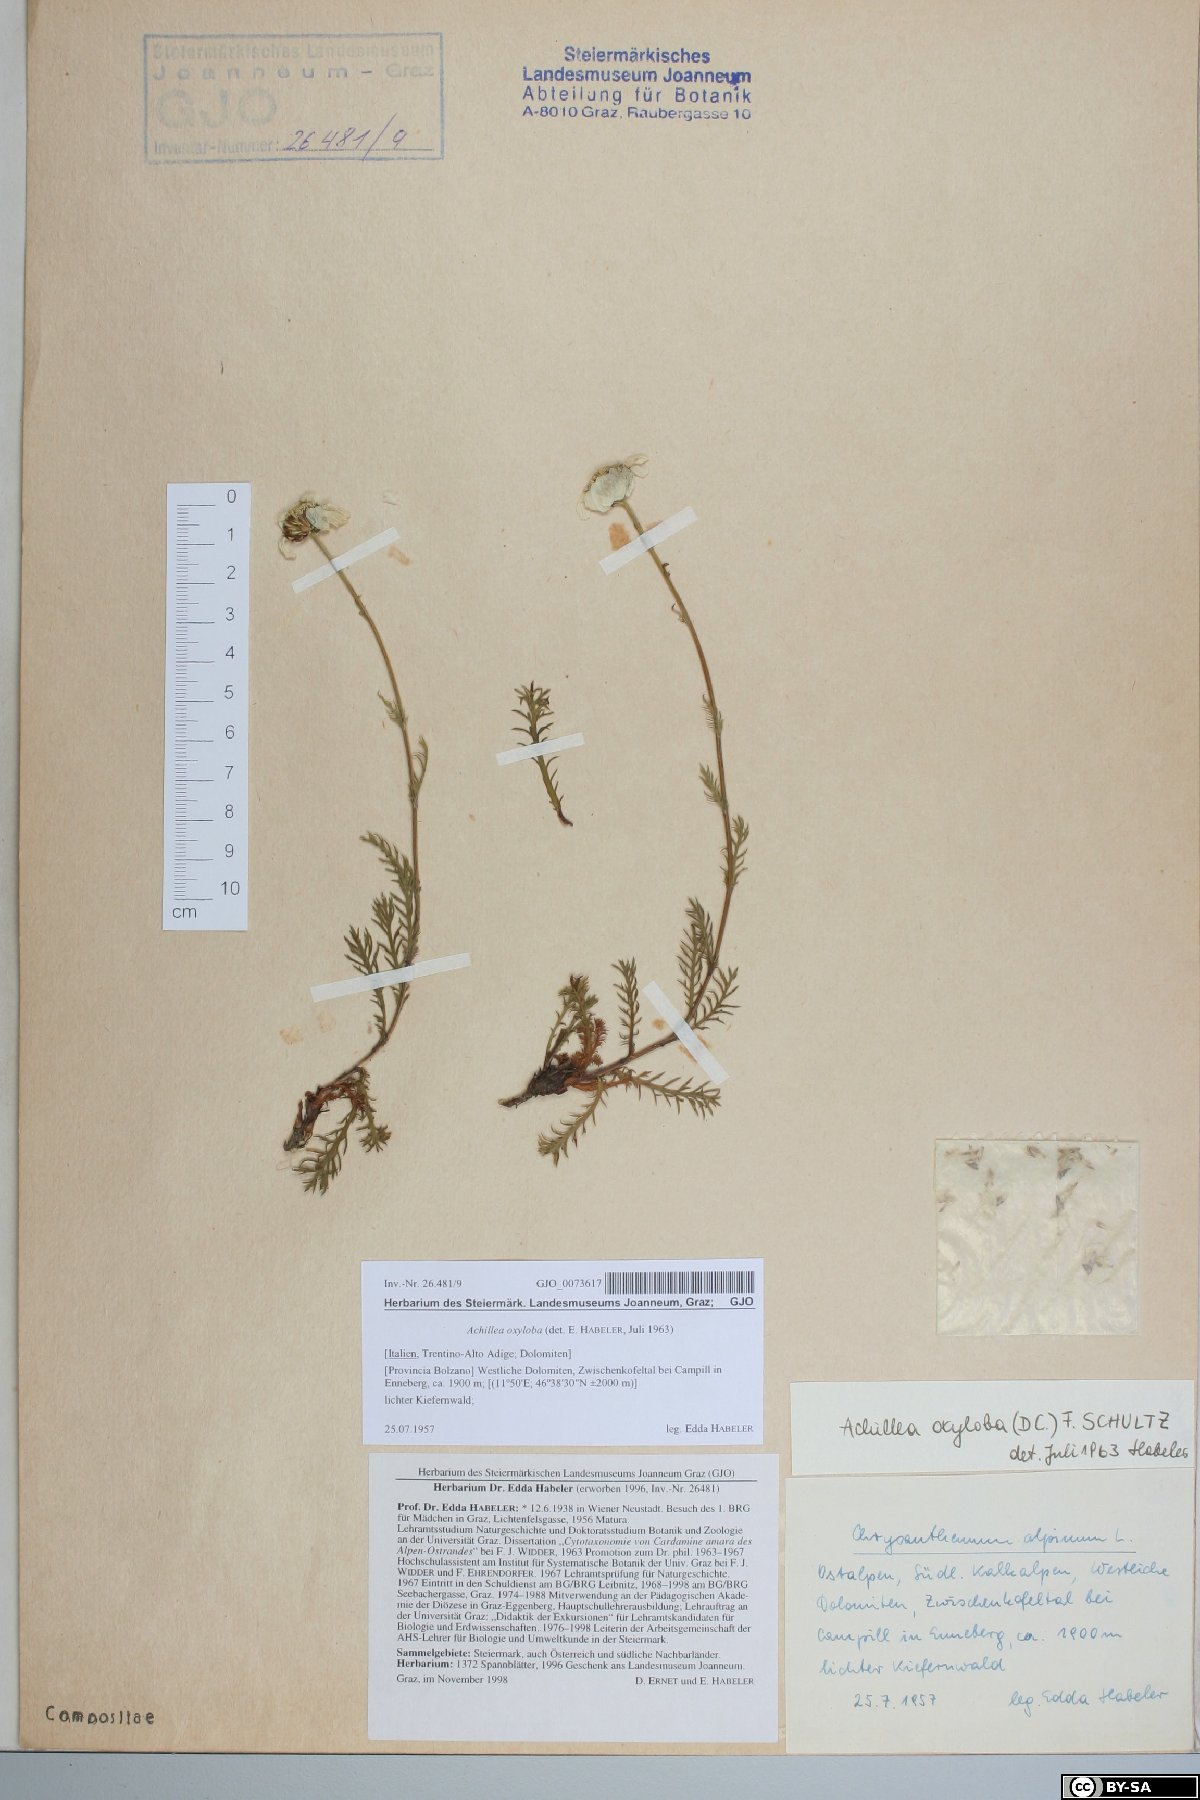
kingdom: Plantae
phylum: Tracheophyta
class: Magnoliopsida
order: Asterales
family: Asteraceae
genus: Achillea
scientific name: Achillea oxyloba
